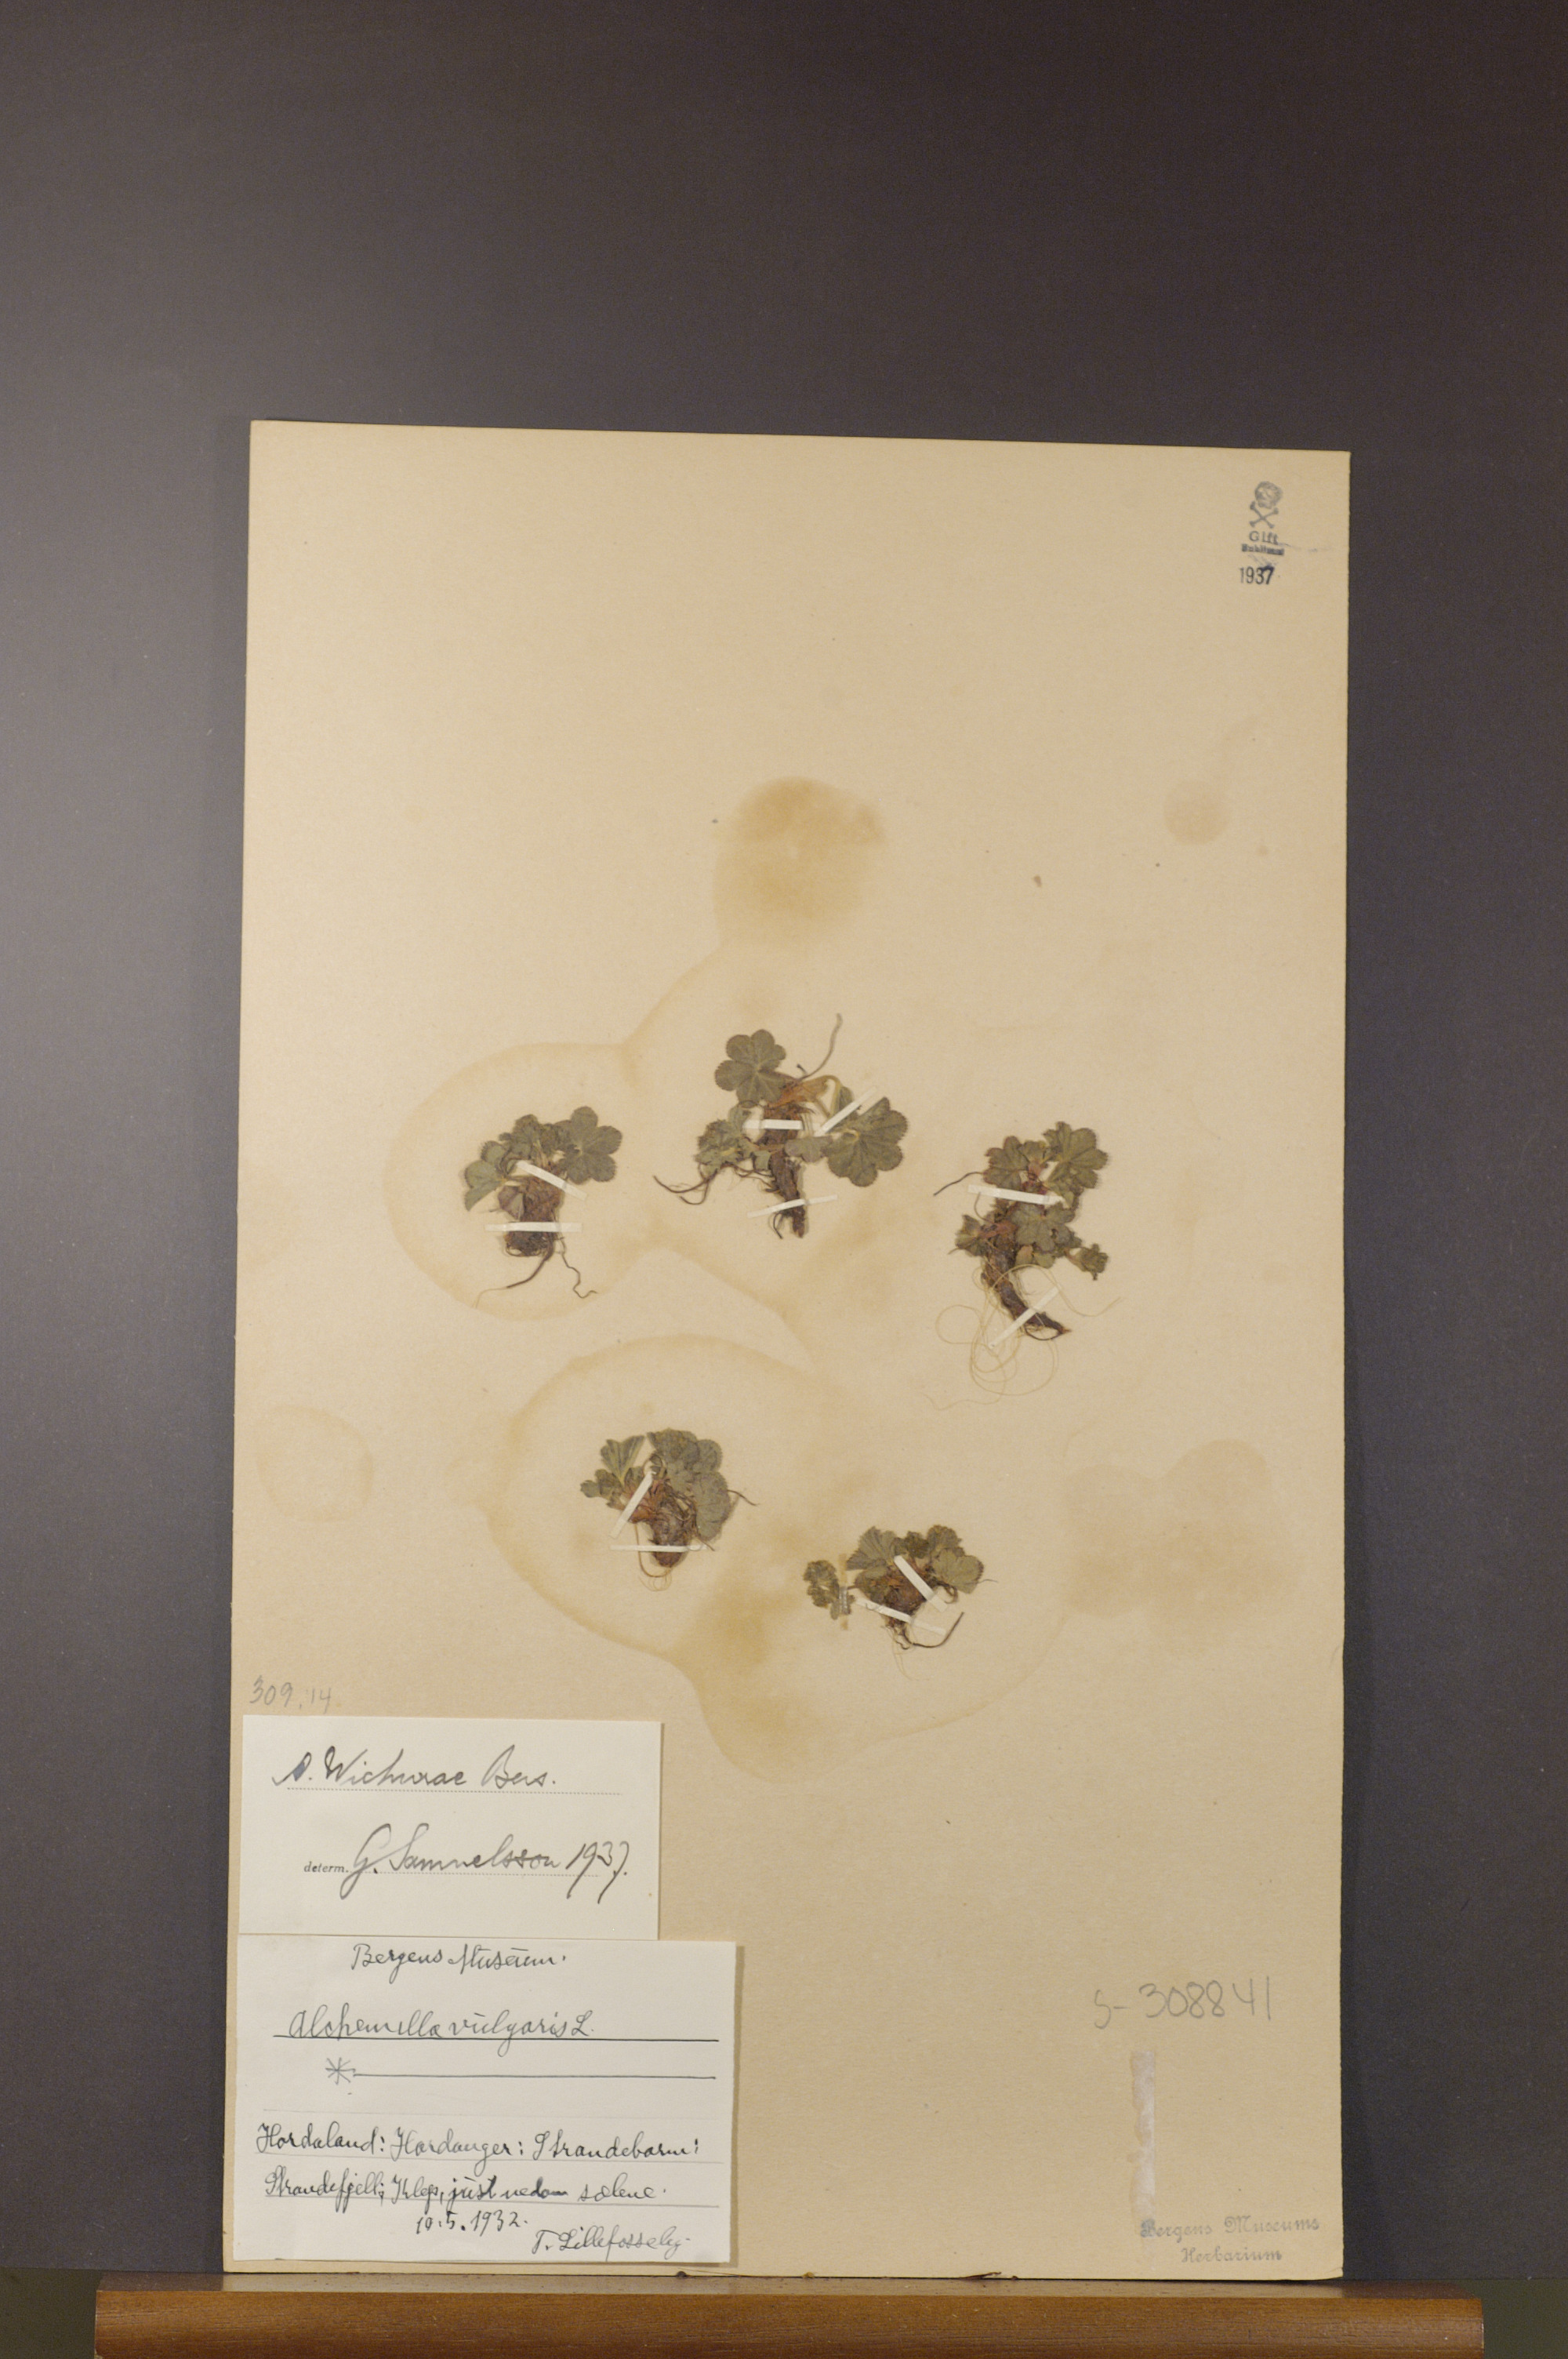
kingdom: Plantae
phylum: Tracheophyta
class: Magnoliopsida
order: Rosales
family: Rosaceae
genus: Alchemilla
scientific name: Alchemilla wichurae
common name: Rock lady's mantle
